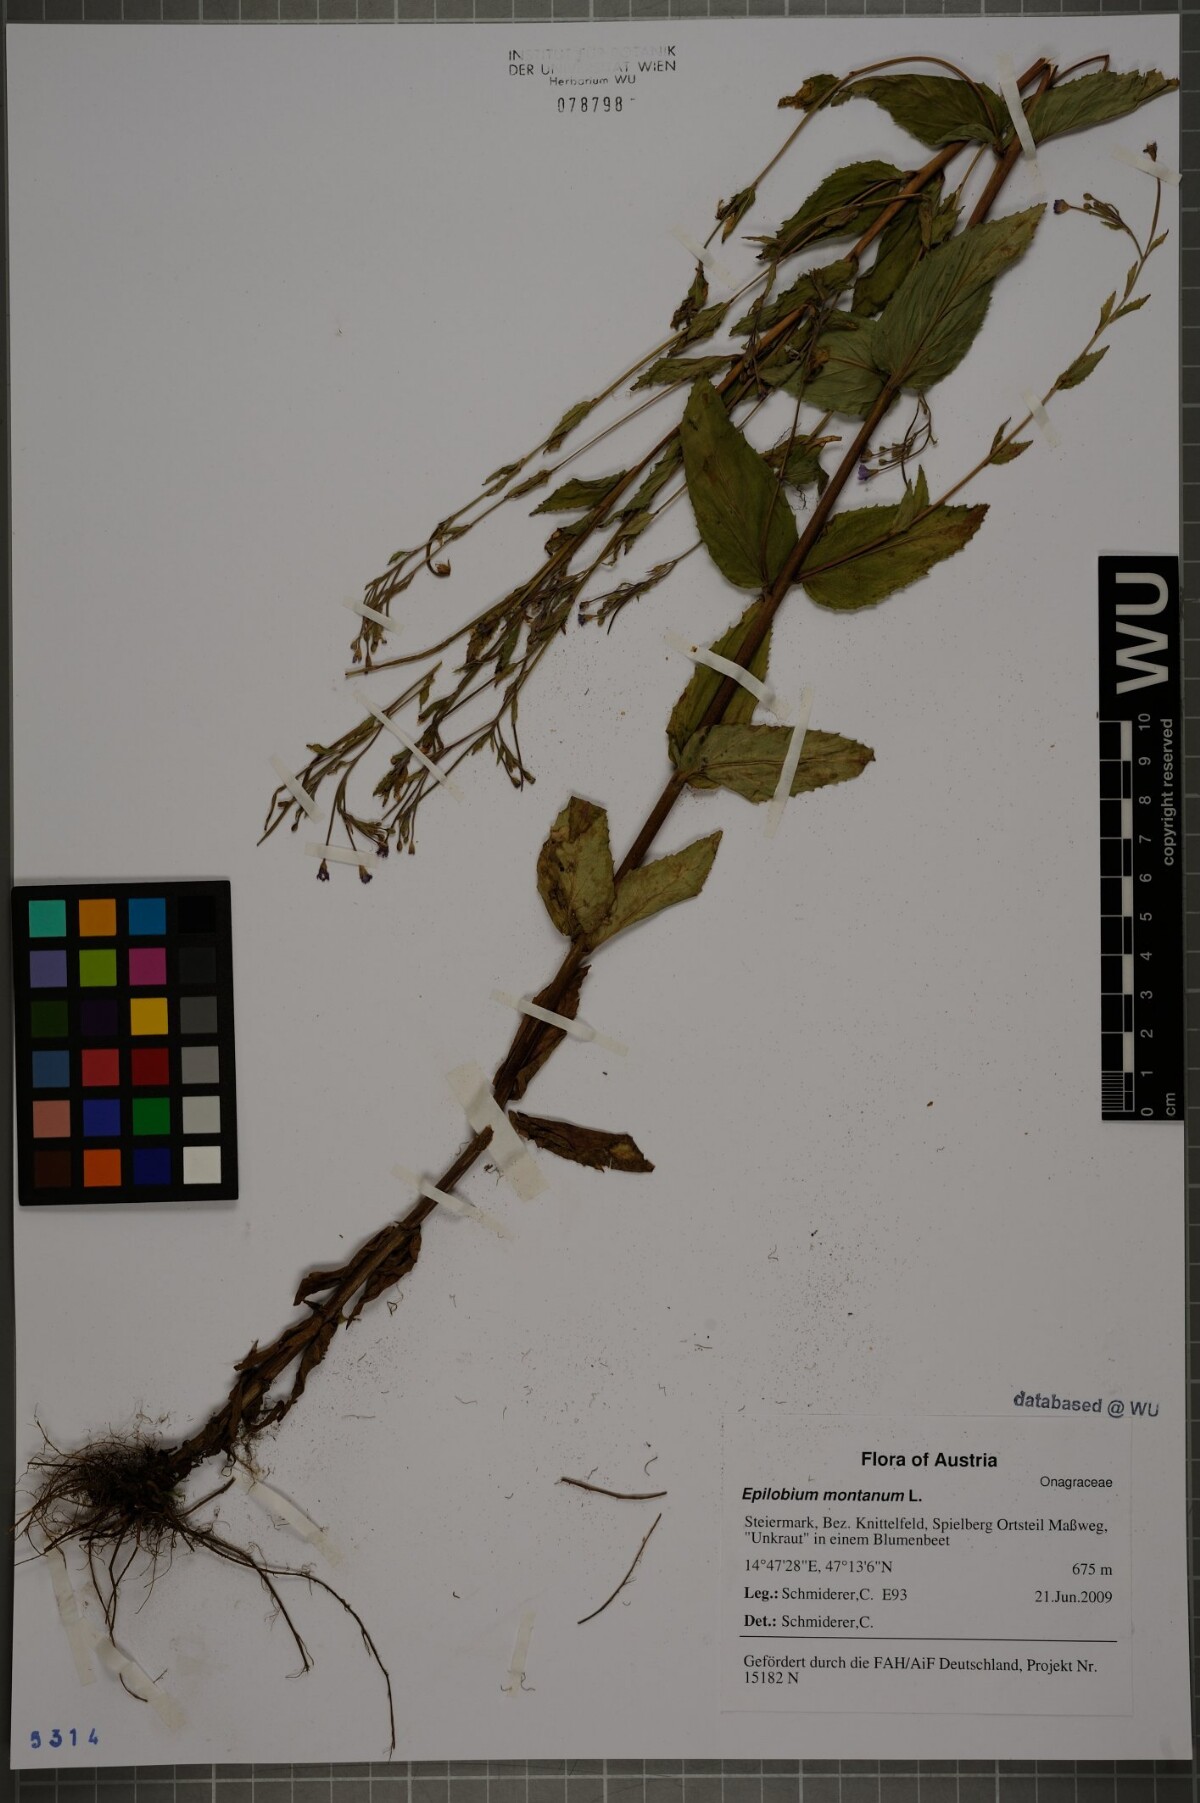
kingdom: Plantae
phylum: Tracheophyta
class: Magnoliopsida
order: Myrtales
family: Onagraceae
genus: Epilobium
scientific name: Epilobium montanum
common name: Broad-leaved willowherb
